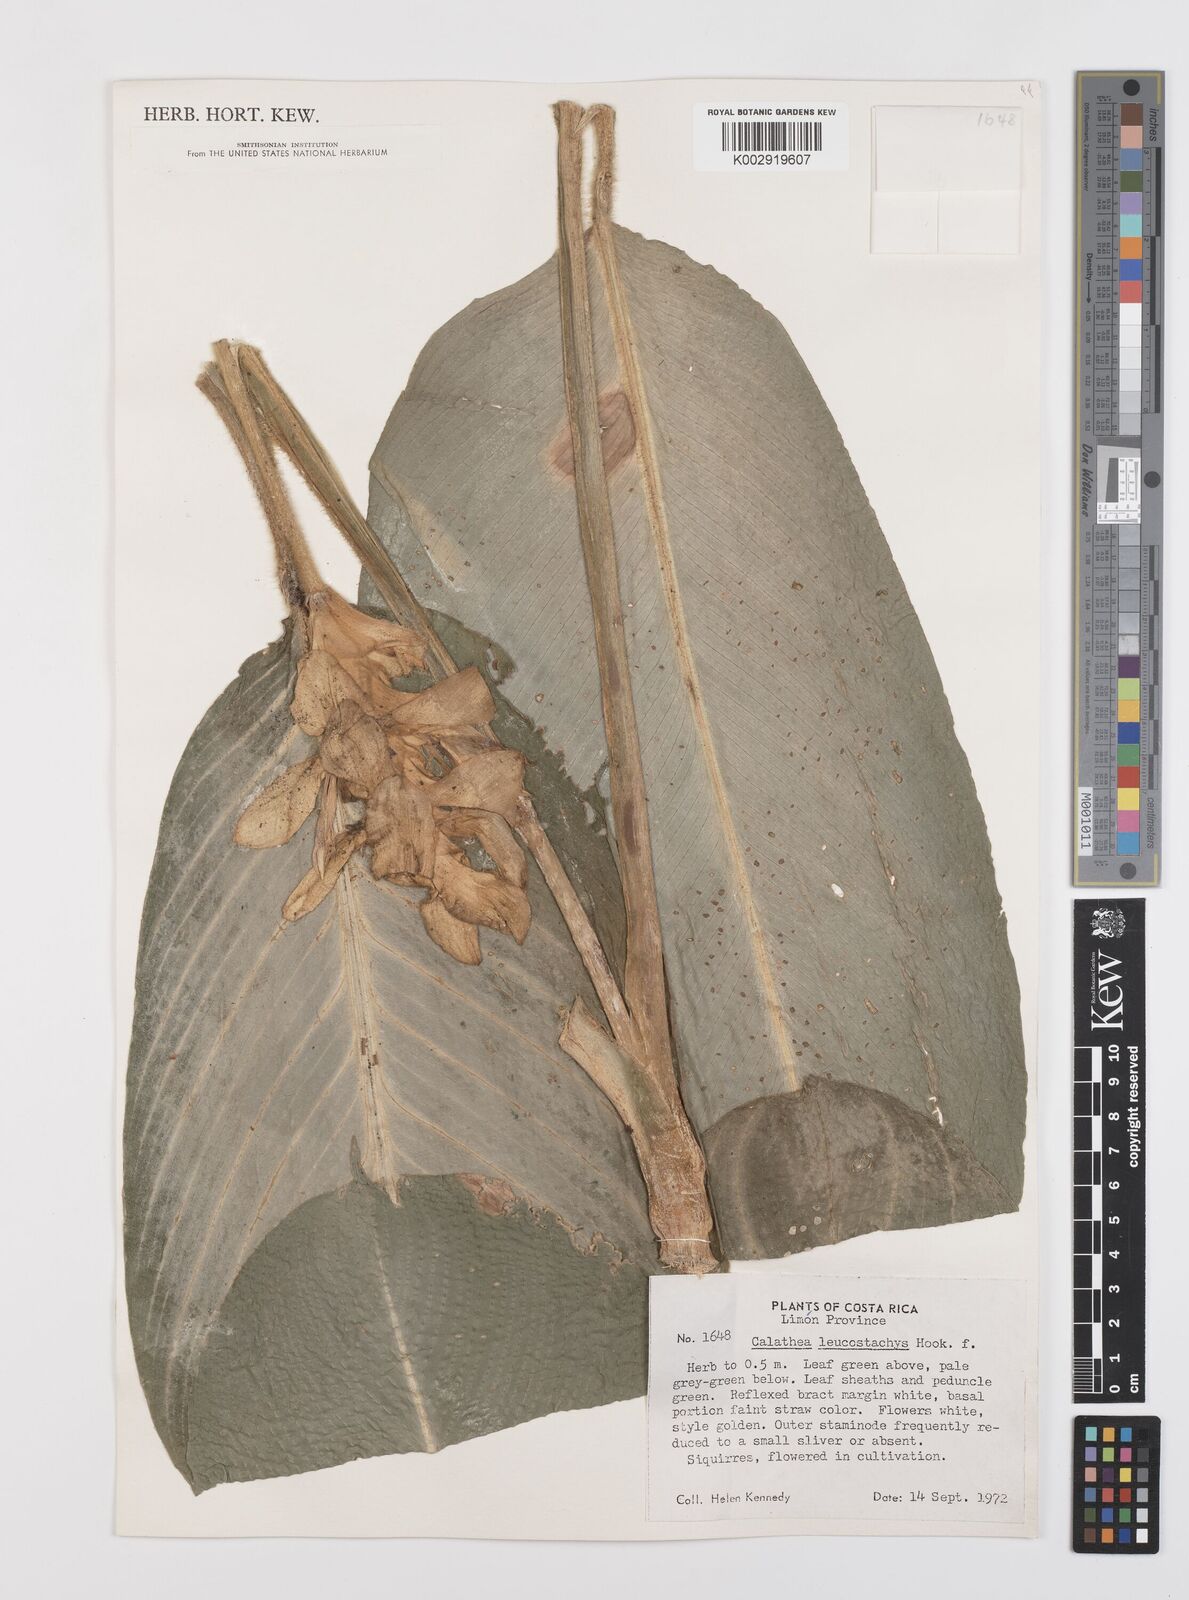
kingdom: Plantae
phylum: Tracheophyta
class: Liliopsida
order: Zingiberales
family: Marantaceae
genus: Goeppertia
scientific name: Goeppertia leucostachys
